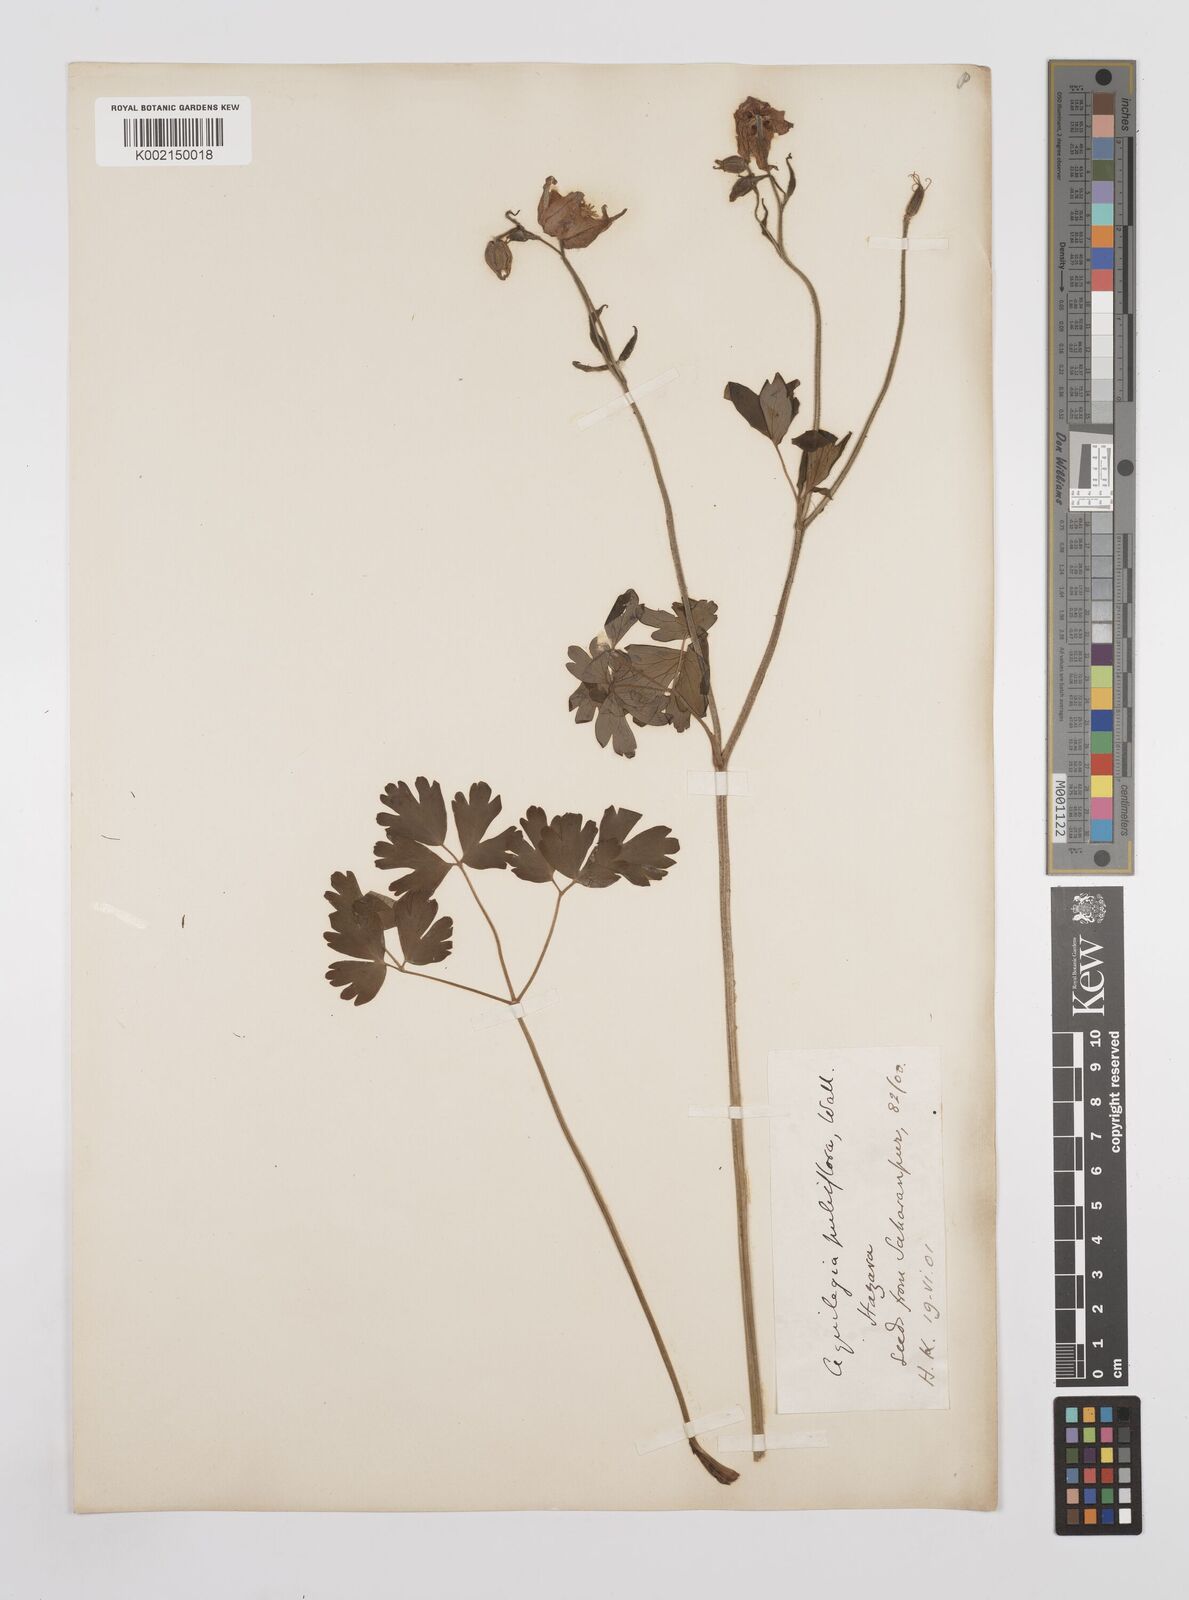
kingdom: Plantae
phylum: Tracheophyta
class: Magnoliopsida
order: Ranunculales
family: Ranunculaceae
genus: Aquilegia
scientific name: Aquilegia pubiflora
